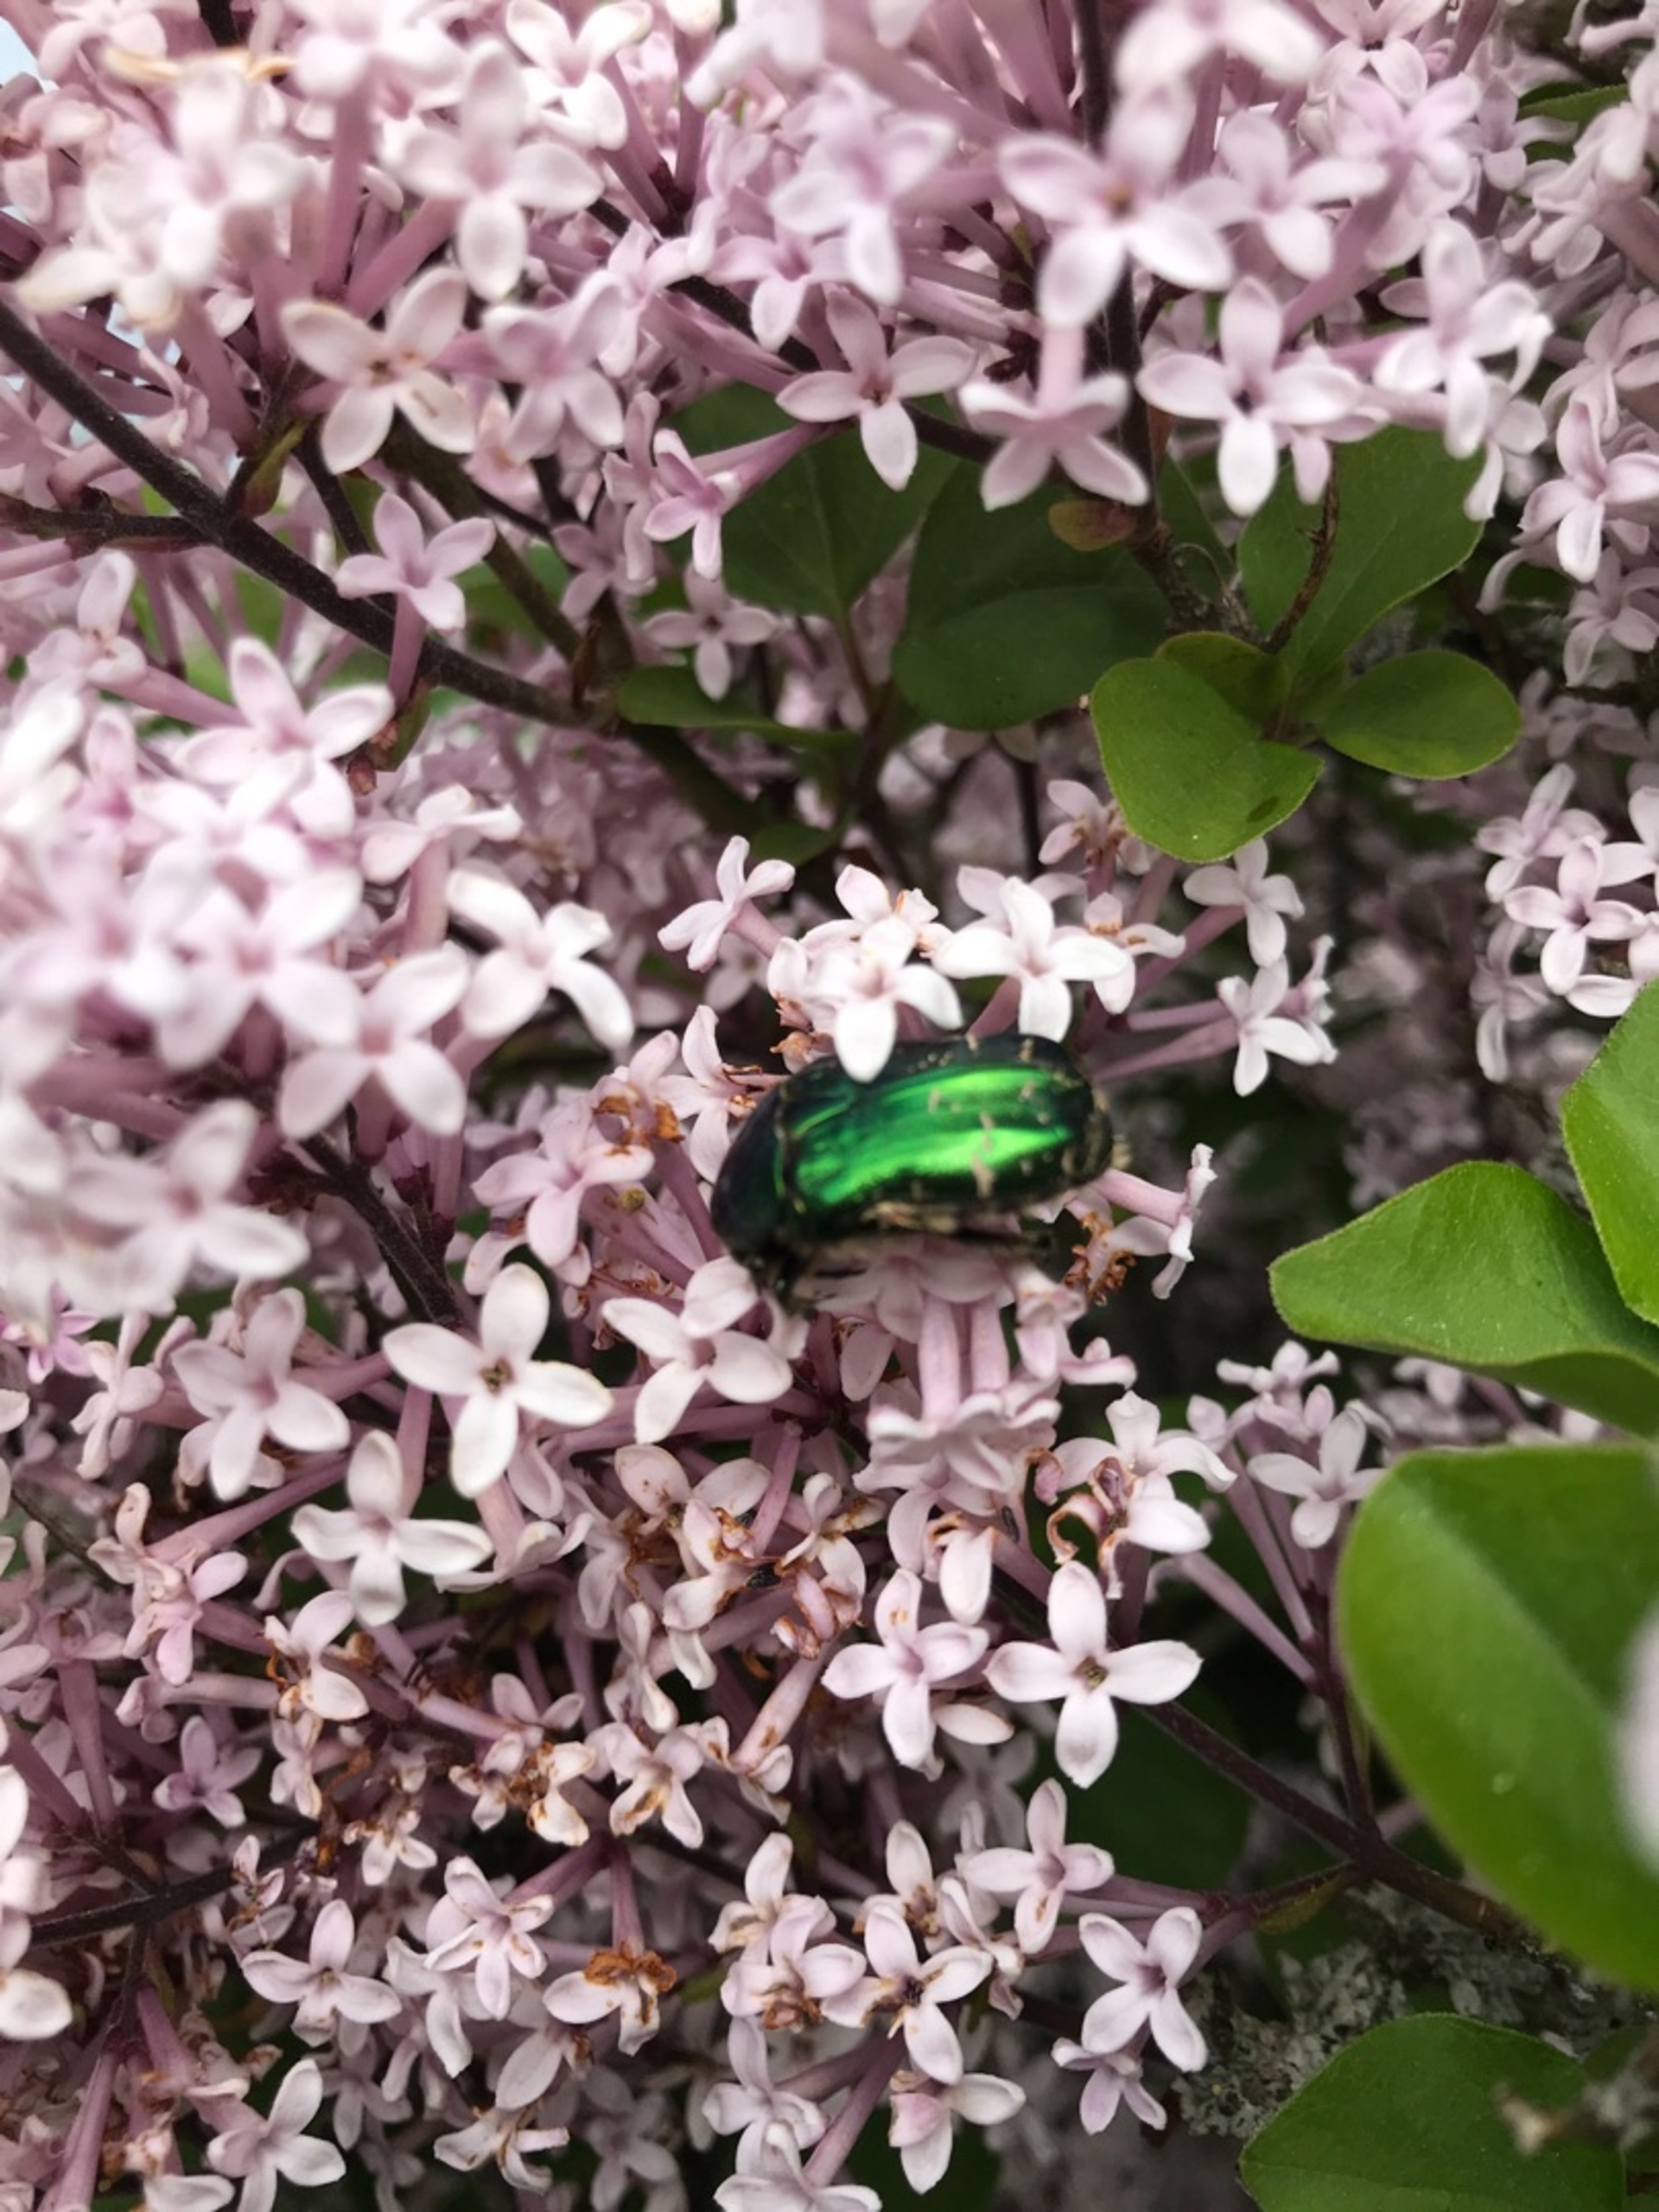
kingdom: Animalia
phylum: Arthropoda
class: Insecta
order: Coleoptera
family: Scarabaeidae
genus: Cetonia
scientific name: Cetonia aurata
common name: Grøn guldbasse
